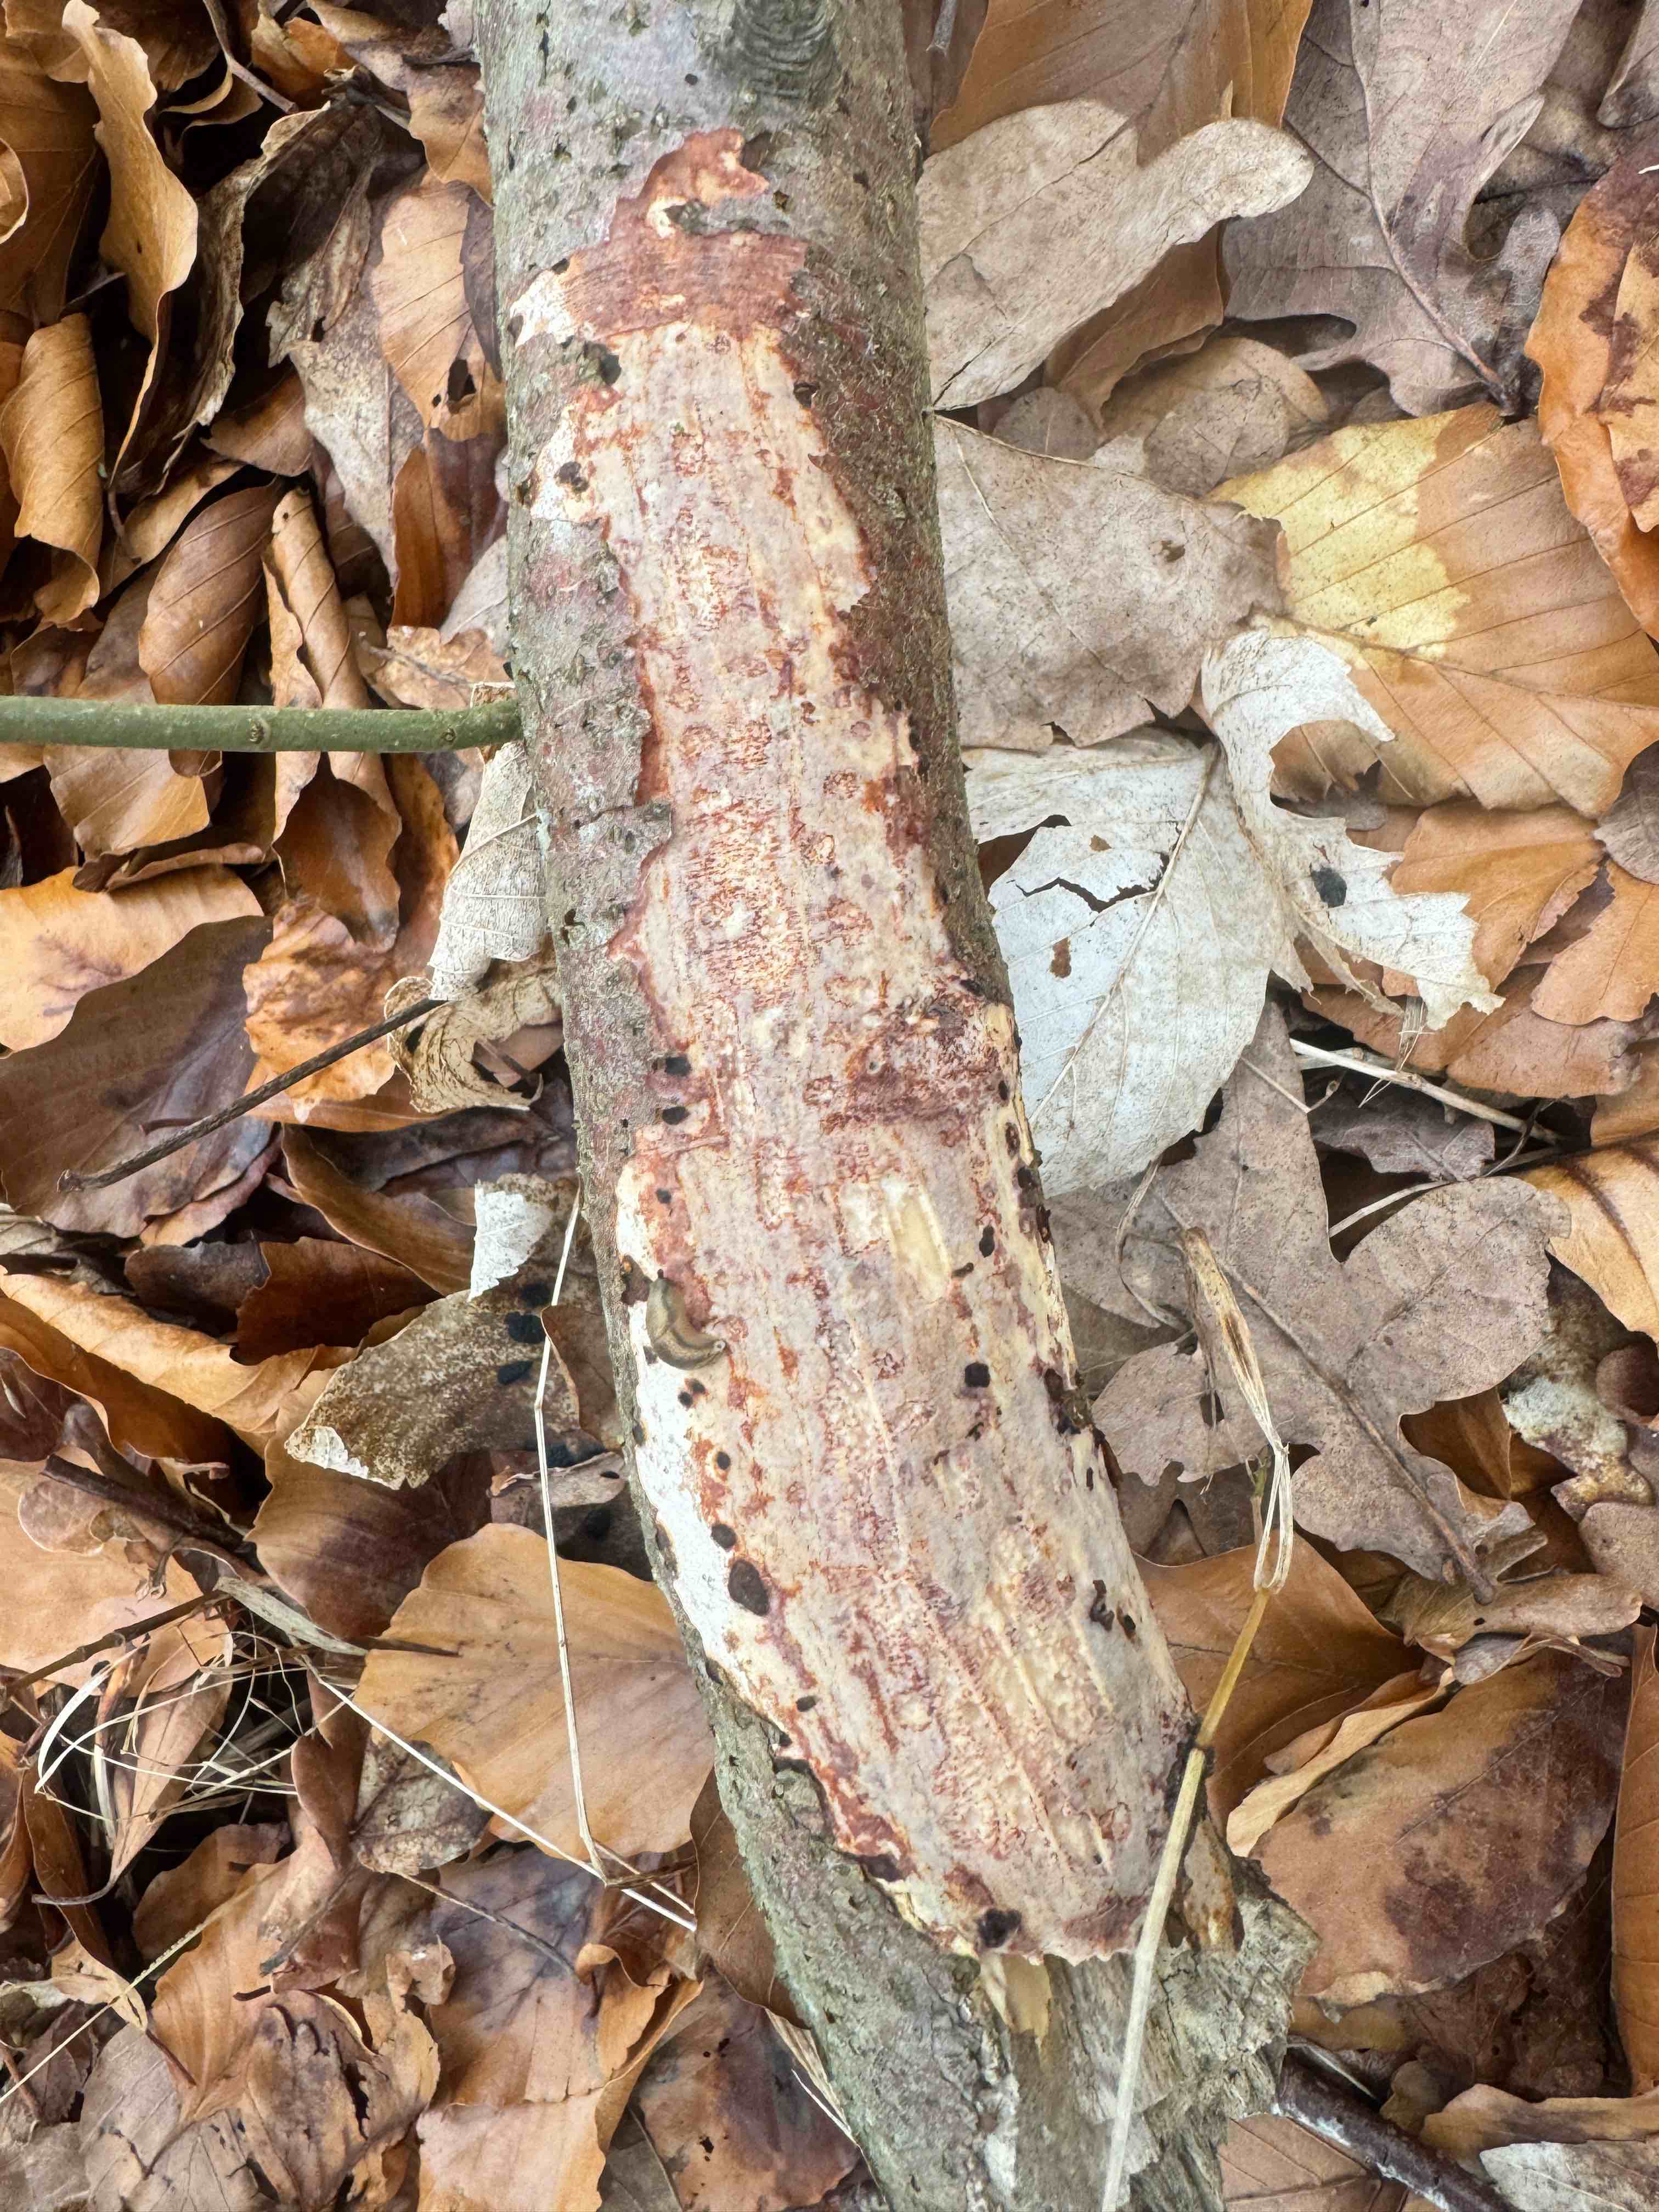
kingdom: Fungi
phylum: Basidiomycota
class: Agaricomycetes
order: Corticiales
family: Vuilleminiaceae
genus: Vuilleminia
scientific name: Vuilleminia comedens
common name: almindelig barksprænger
